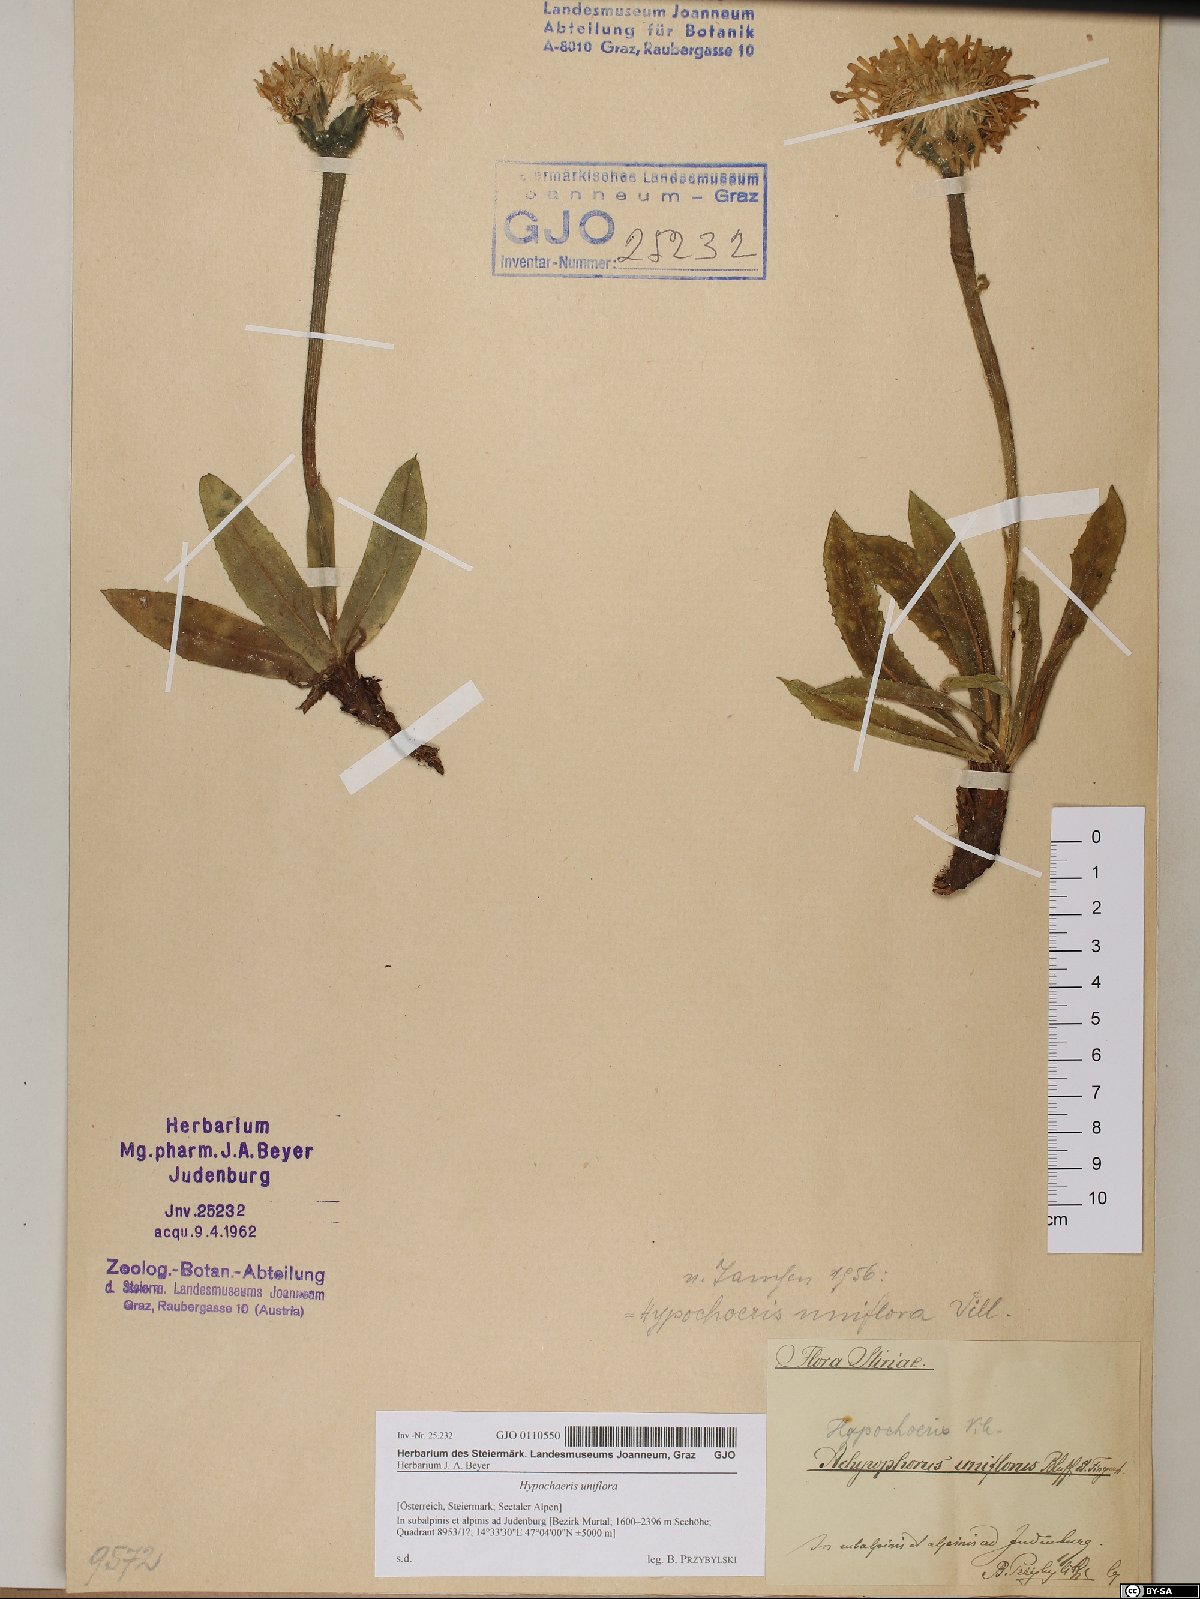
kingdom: Plantae
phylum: Tracheophyta
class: Magnoliopsida
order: Asterales
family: Asteraceae
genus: Trommsdorffia
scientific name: Trommsdorffia uniflora
